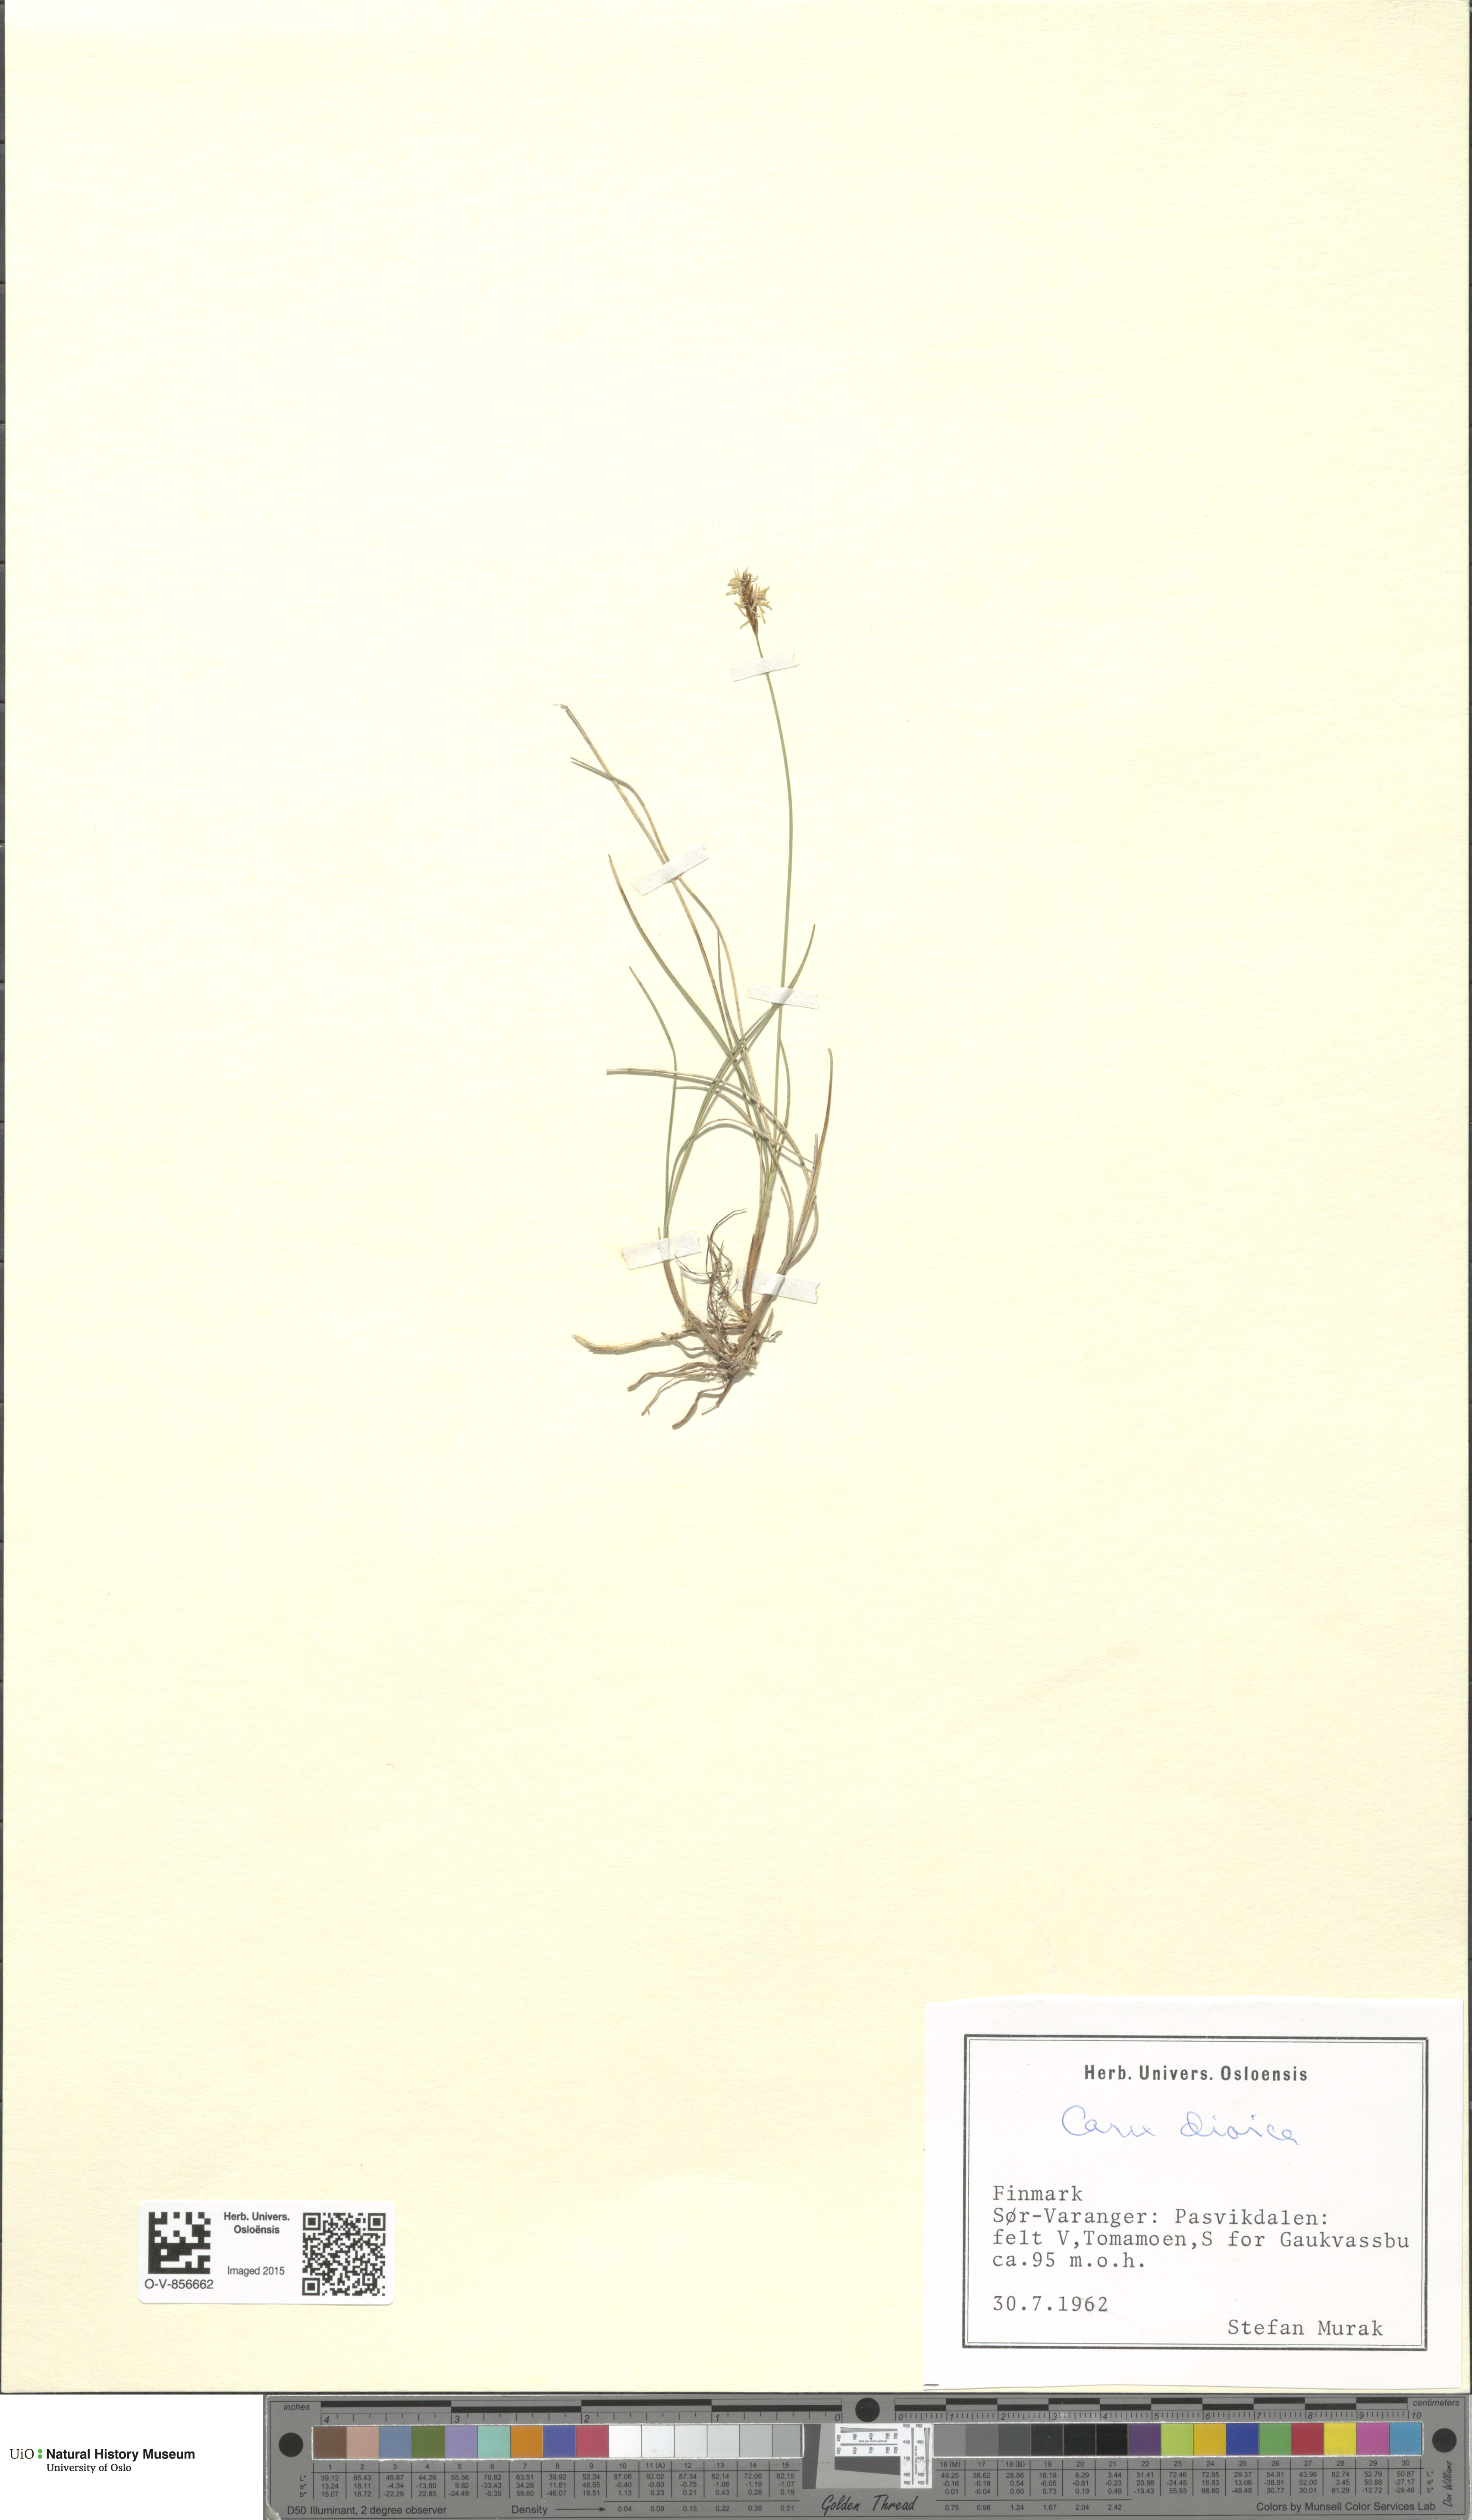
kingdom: Plantae
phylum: Tracheophyta
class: Liliopsida
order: Poales
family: Cyperaceae
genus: Carex
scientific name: Carex dioica
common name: Dioecious sedge
